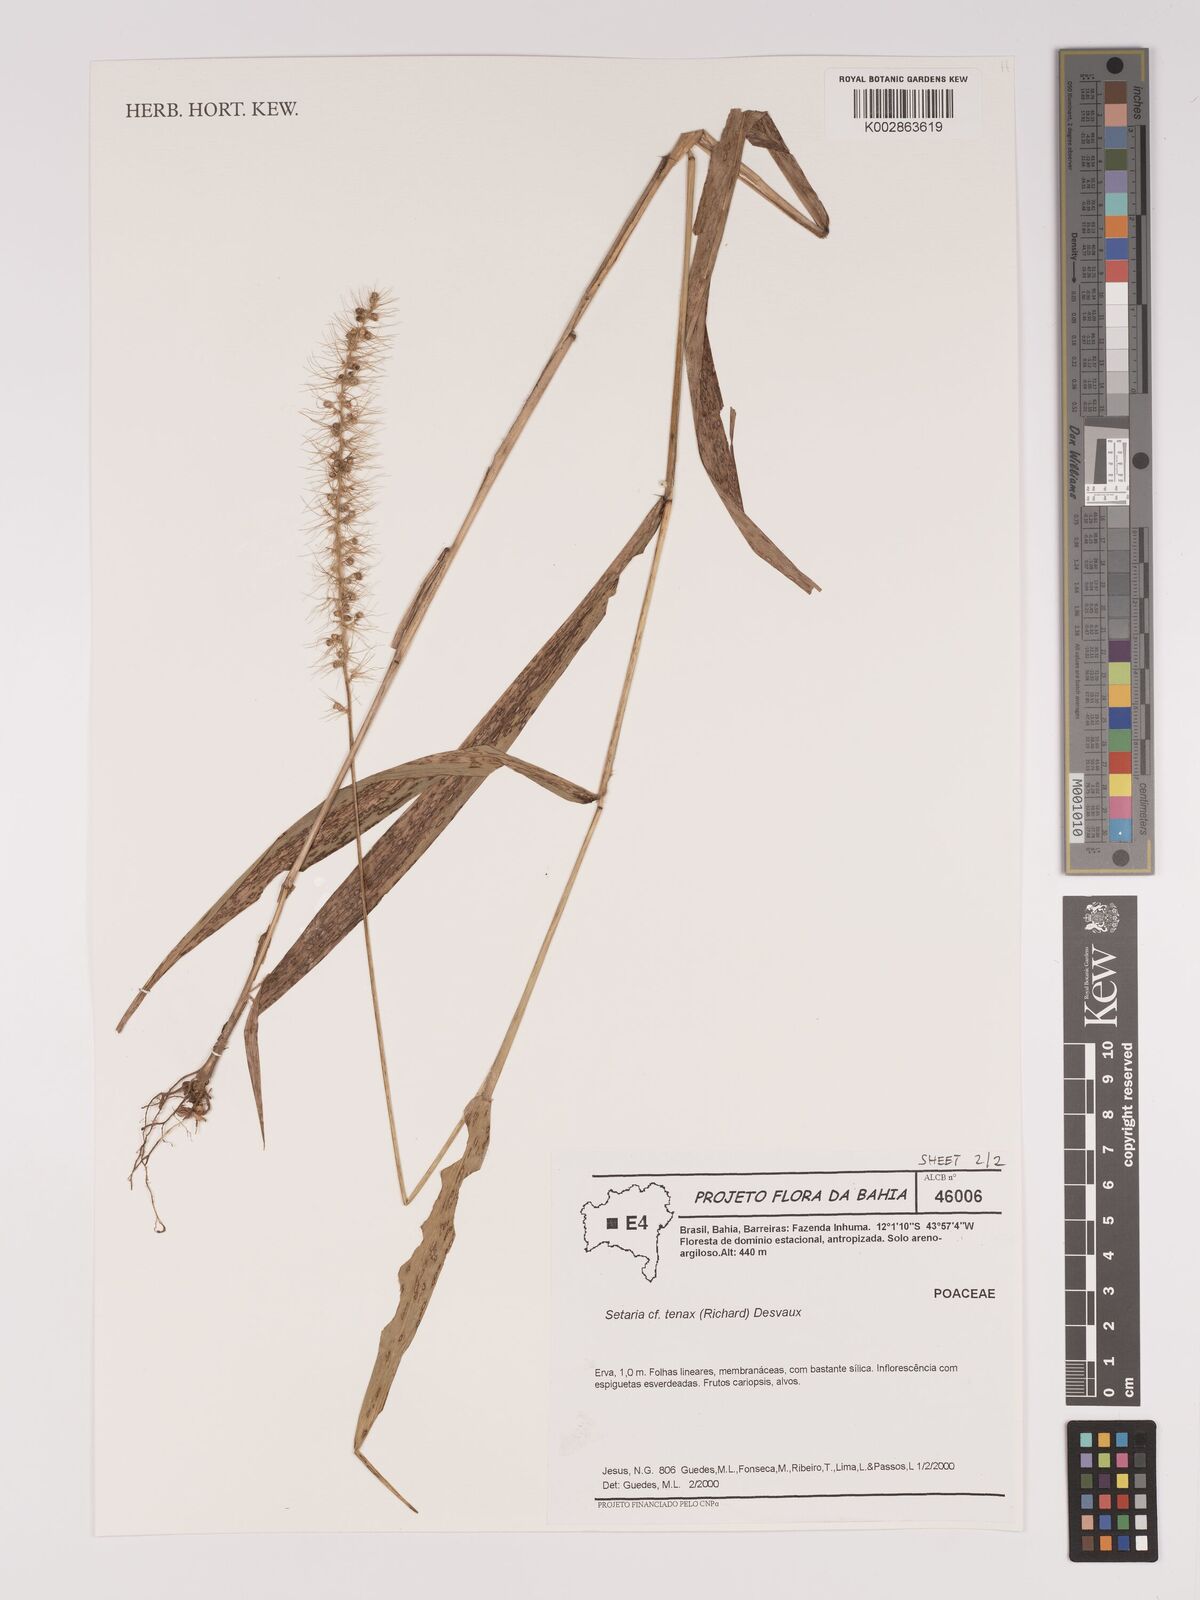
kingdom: Plantae
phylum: Tracheophyta
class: Liliopsida
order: Poales
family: Poaceae
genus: Setaria
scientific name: Setaria tenax
